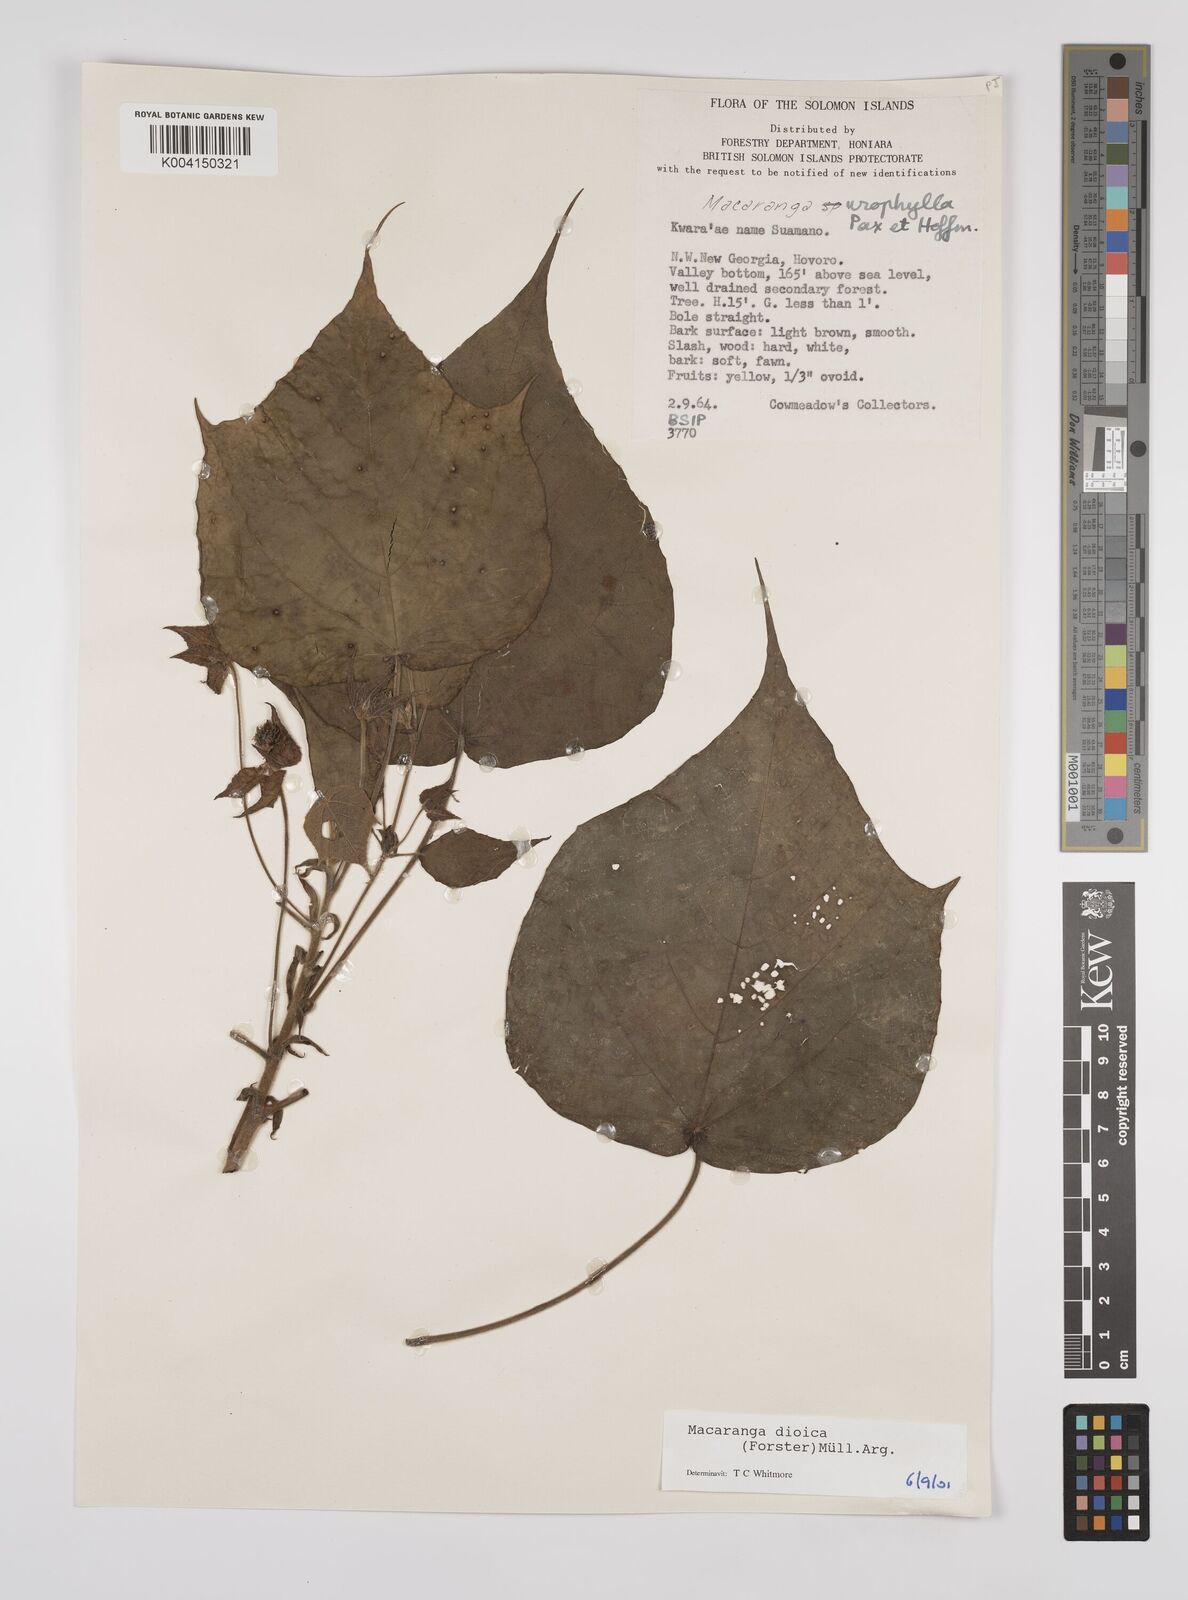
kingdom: Plantae
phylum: Tracheophyta
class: Magnoliopsida
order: Malpighiales
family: Euphorbiaceae
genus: Macaranga
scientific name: Macaranga dioica
